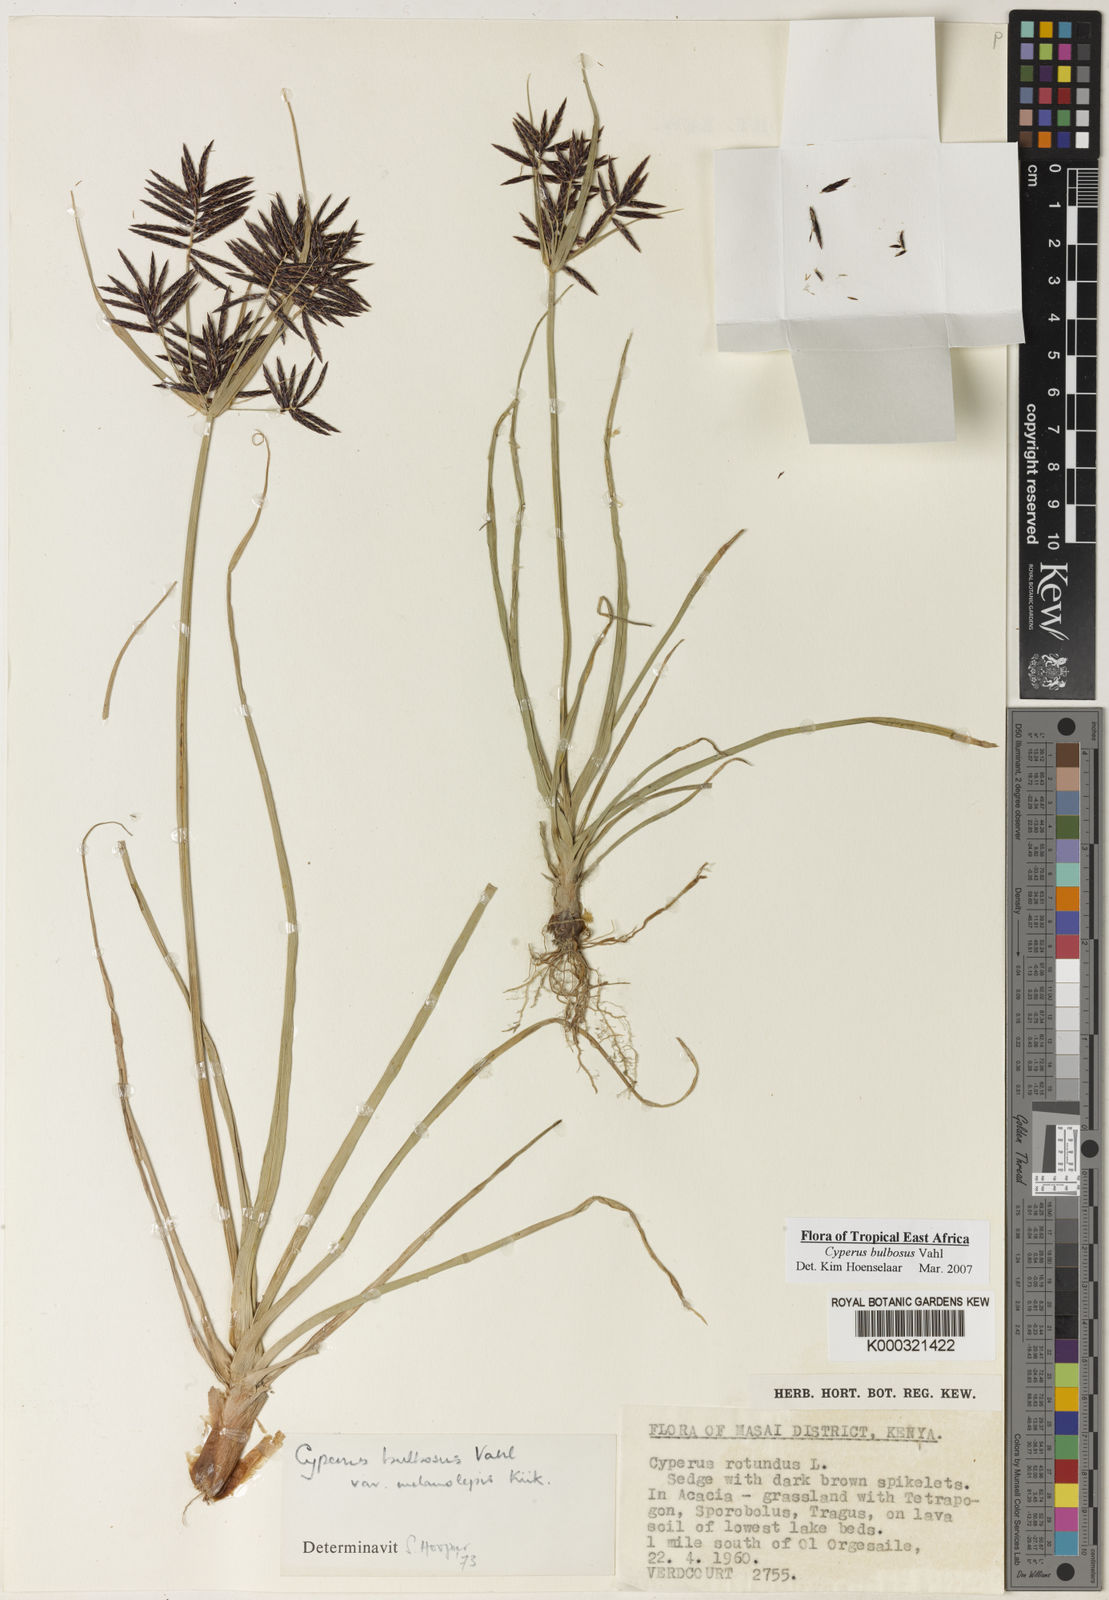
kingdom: Plantae
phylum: Tracheophyta
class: Liliopsida
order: Poales
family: Cyperaceae
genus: Cyperus
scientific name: Cyperus bulbosus
